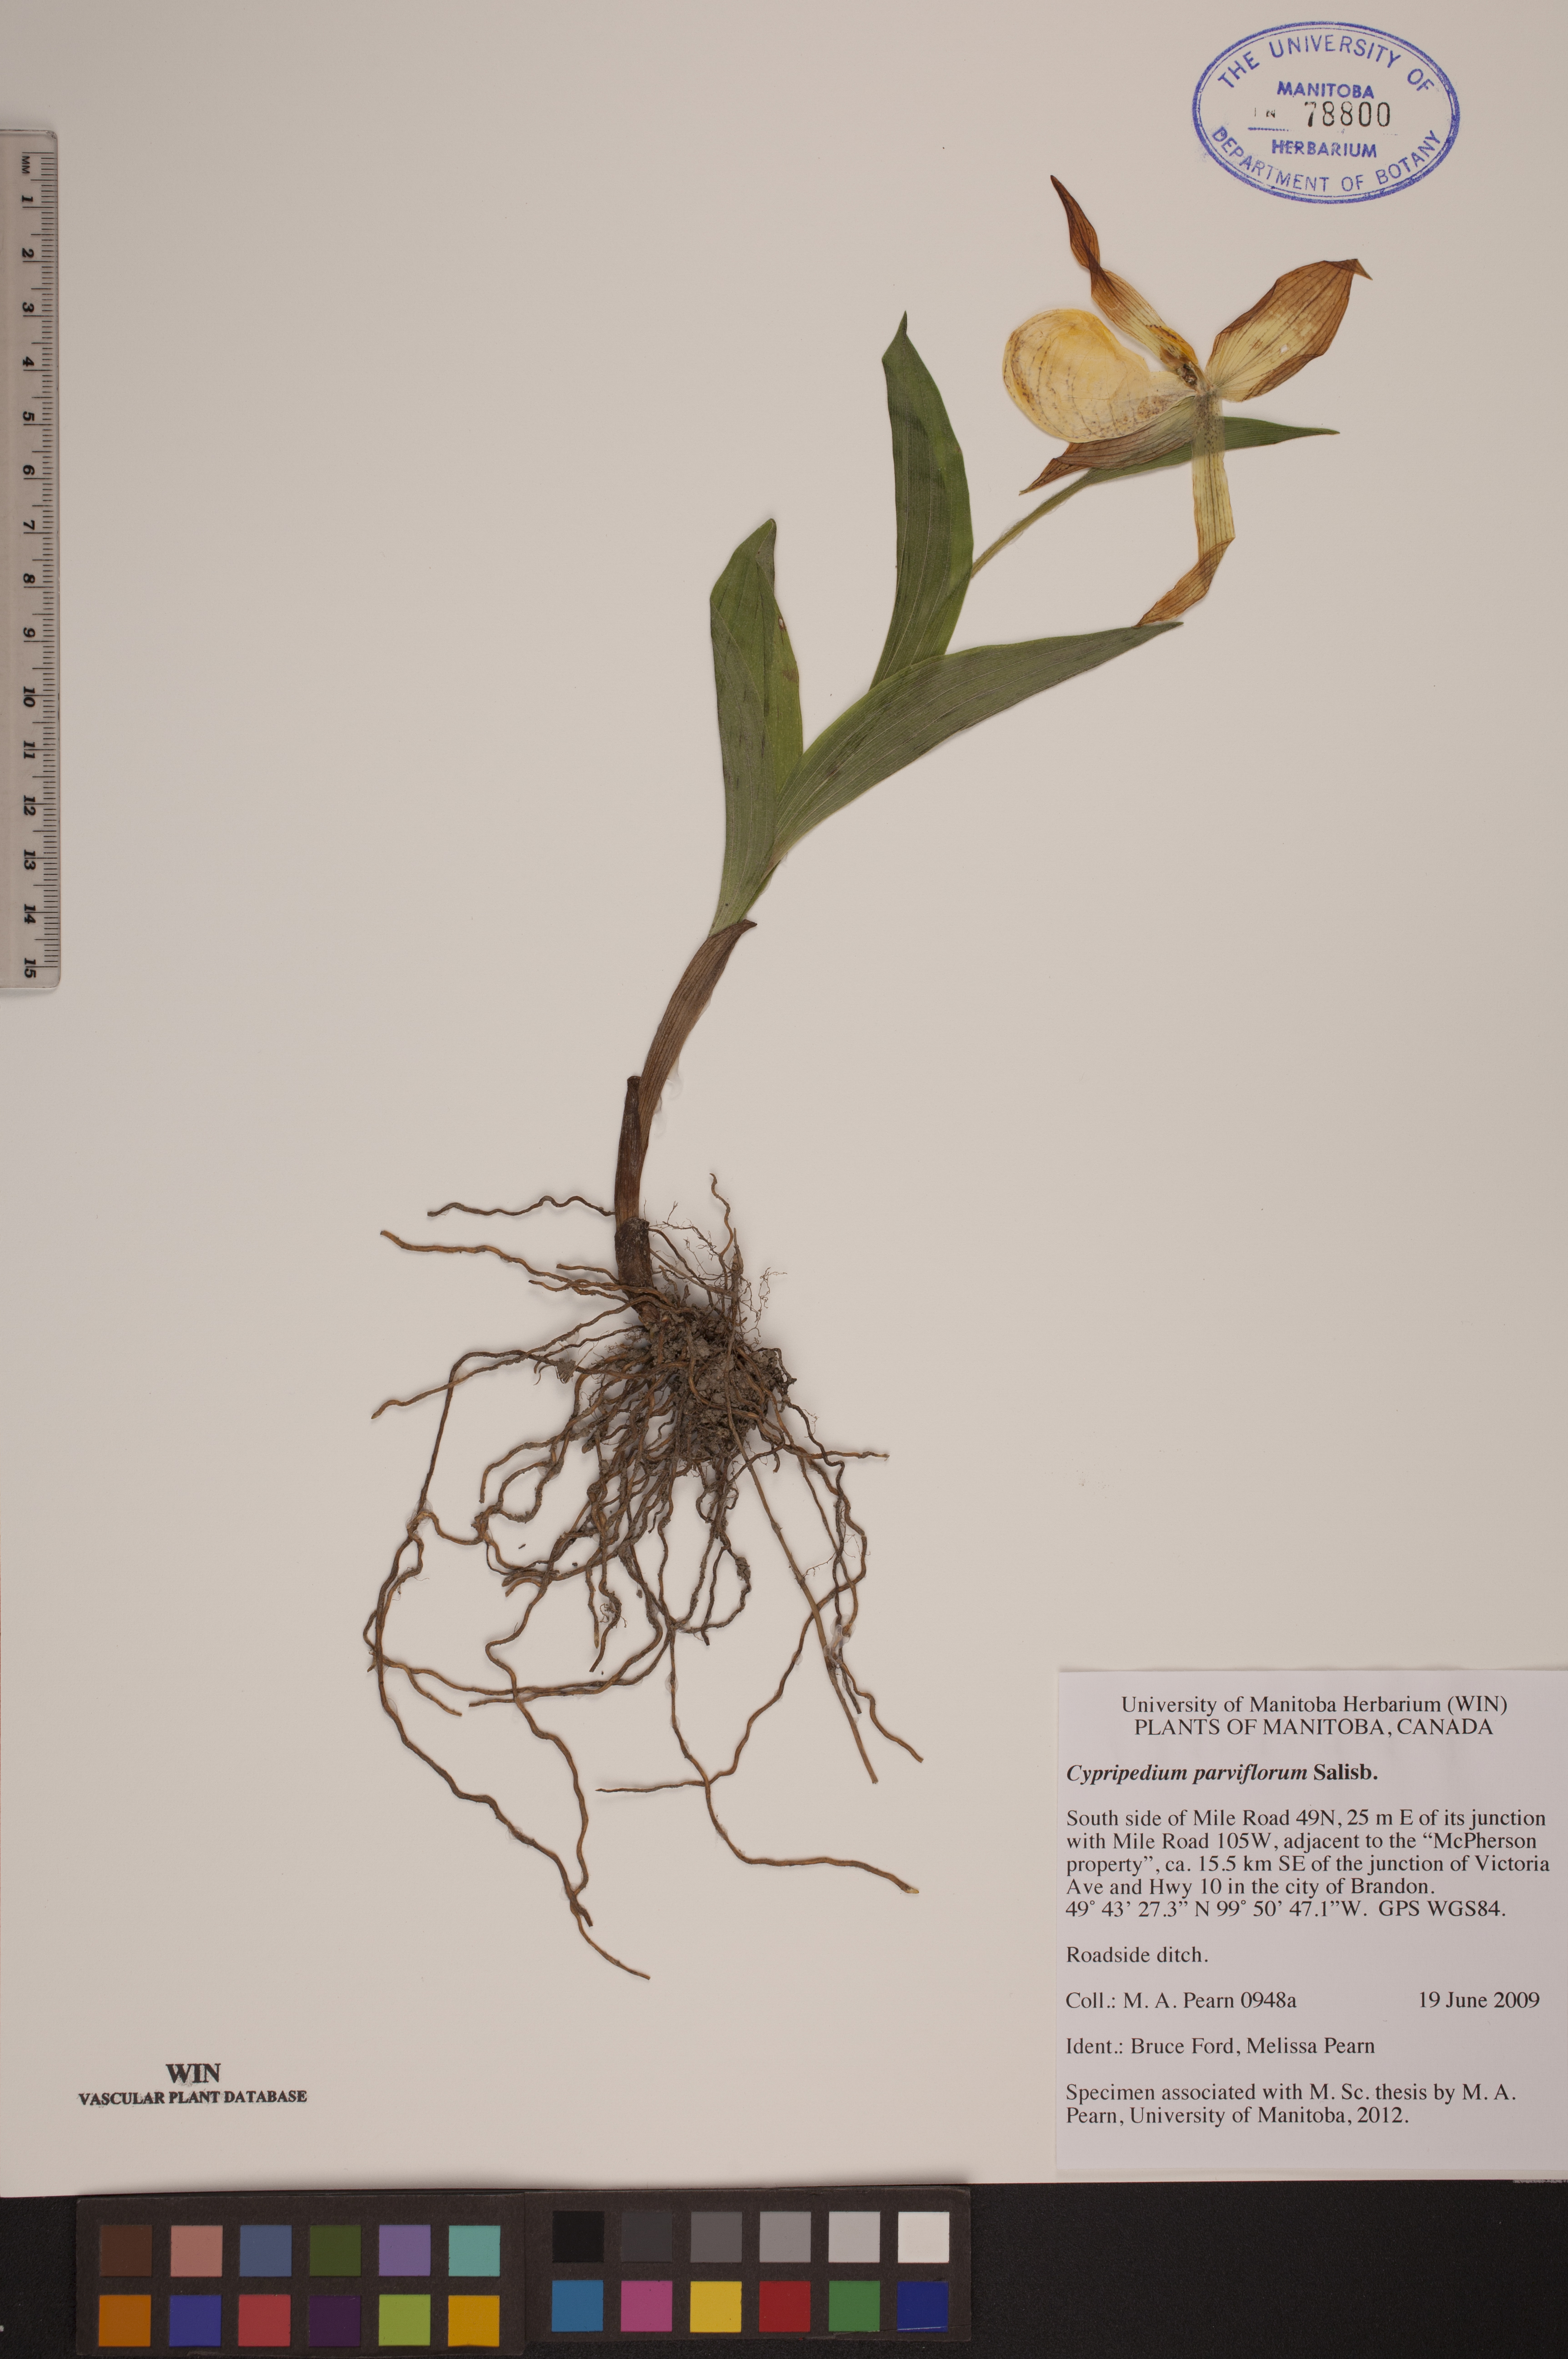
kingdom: Plantae
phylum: Tracheophyta
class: Liliopsida
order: Asparagales
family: Orchidaceae
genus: Cypripedium
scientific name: Cypripedium parviflorum
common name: American yellow lady's-slipper
